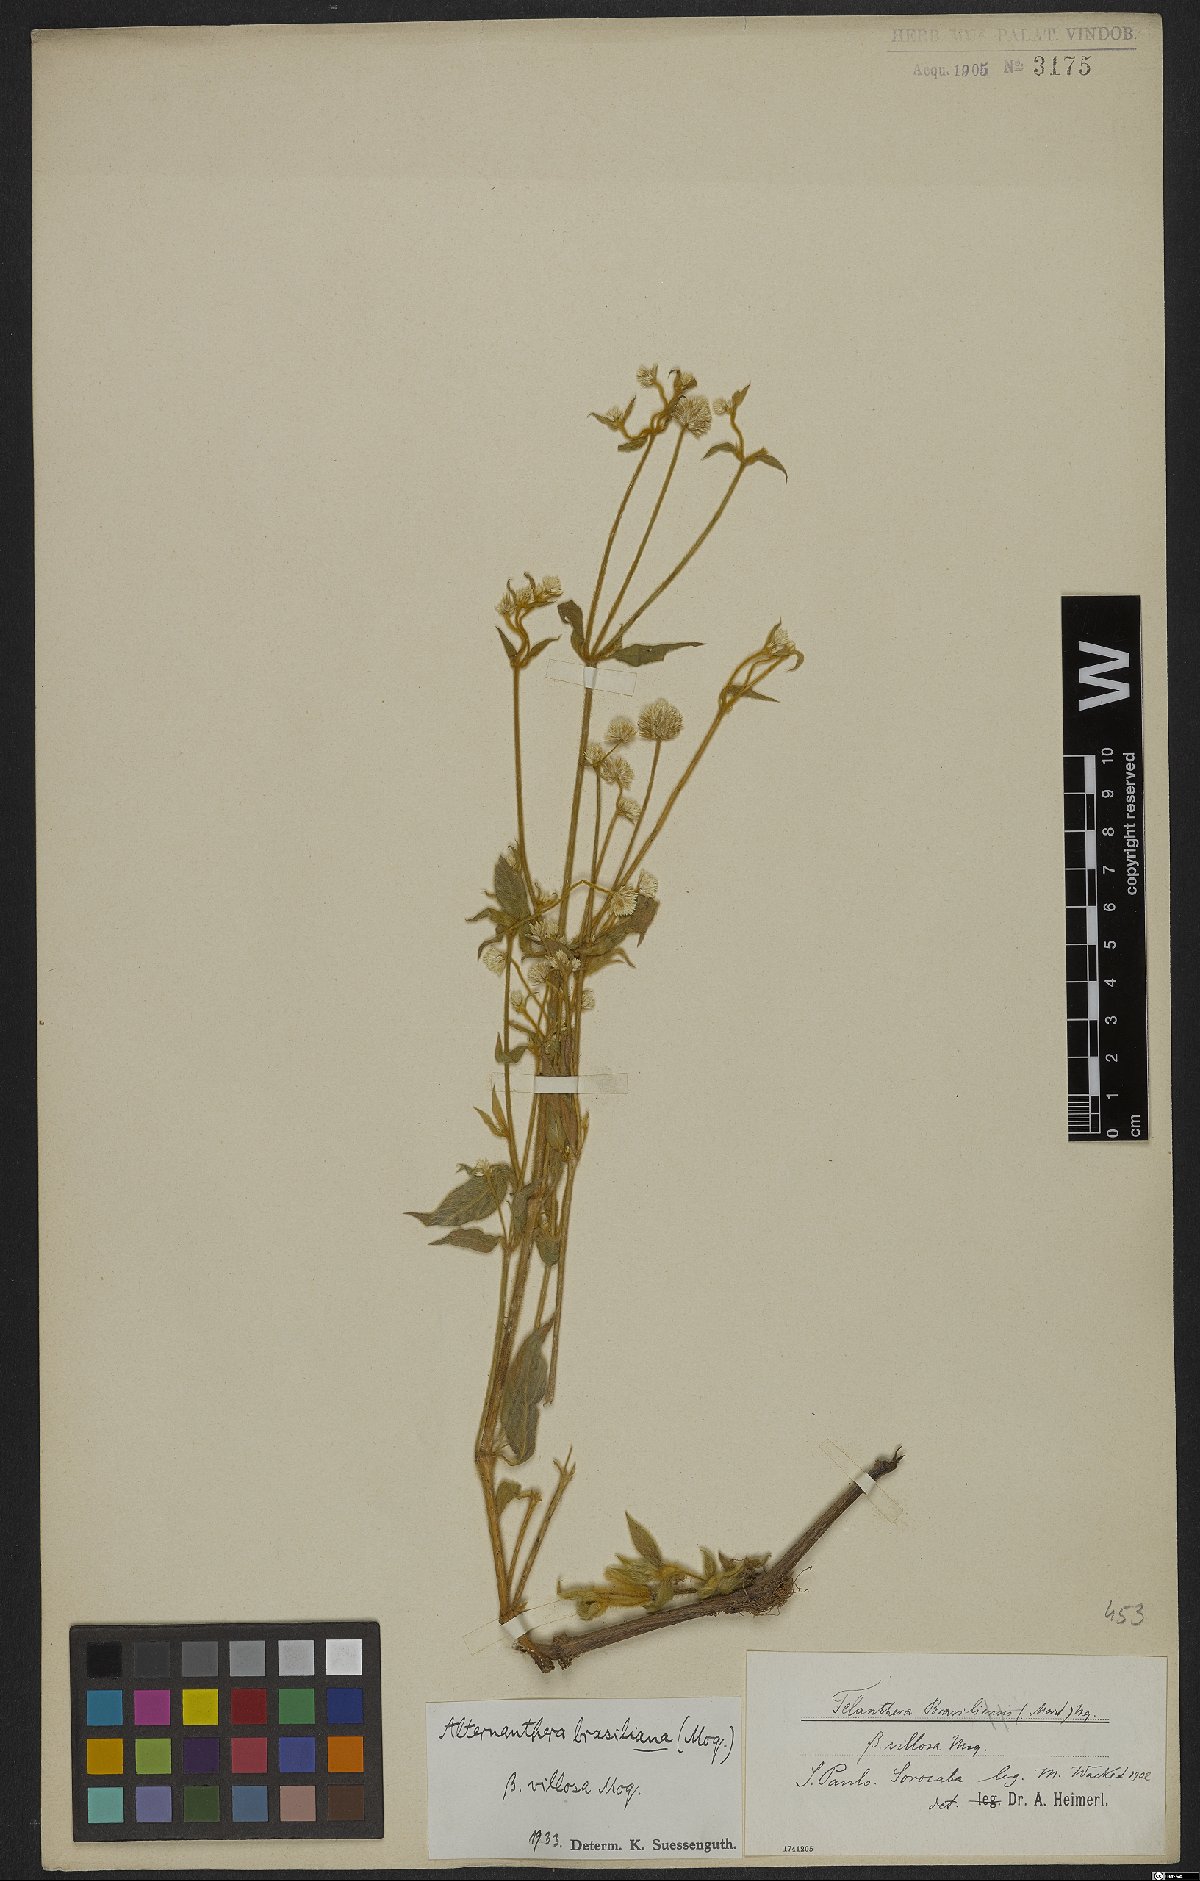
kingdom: Plantae
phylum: Tracheophyta
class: Magnoliopsida
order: Caryophyllales
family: Amaranthaceae
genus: Alternanthera
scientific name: Alternanthera brasiliana
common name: Brazilian joyweed
